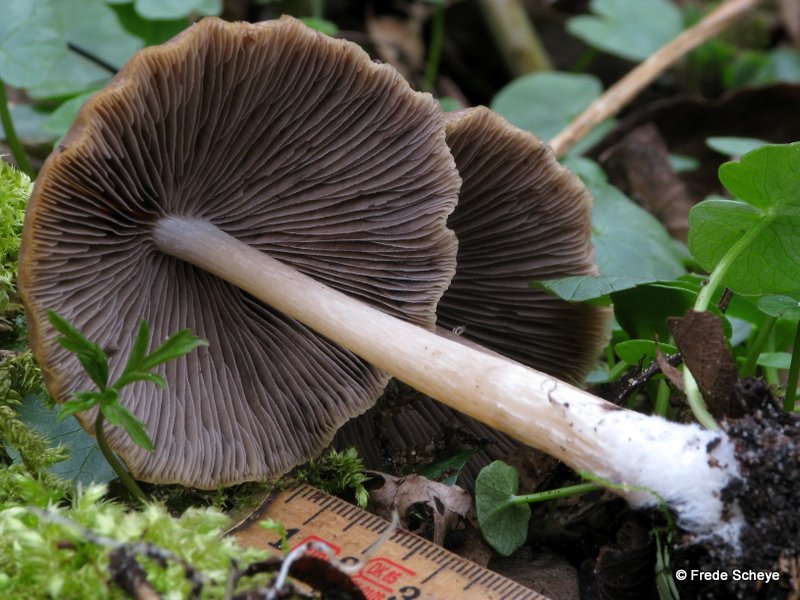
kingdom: Fungi
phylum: Basidiomycota
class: Agaricomycetes
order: Agaricales
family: Psathyrellaceae
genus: Psathyrella
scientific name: Psathyrella spadiceogrisea
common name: gråbrun mørkhat
